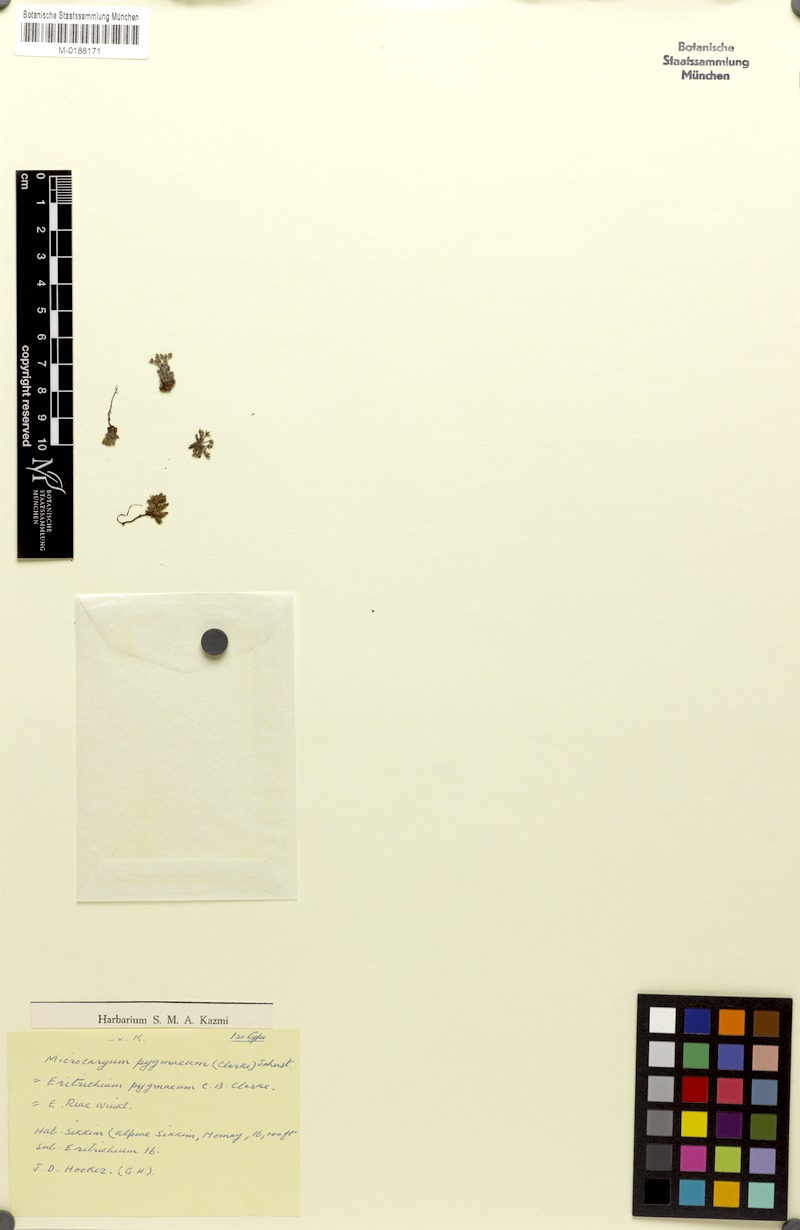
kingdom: Plantae
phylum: Tracheophyta
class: Magnoliopsida
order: Boraginales
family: Boraginaceae
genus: Microcaryum
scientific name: Microcaryum pygmaeum
